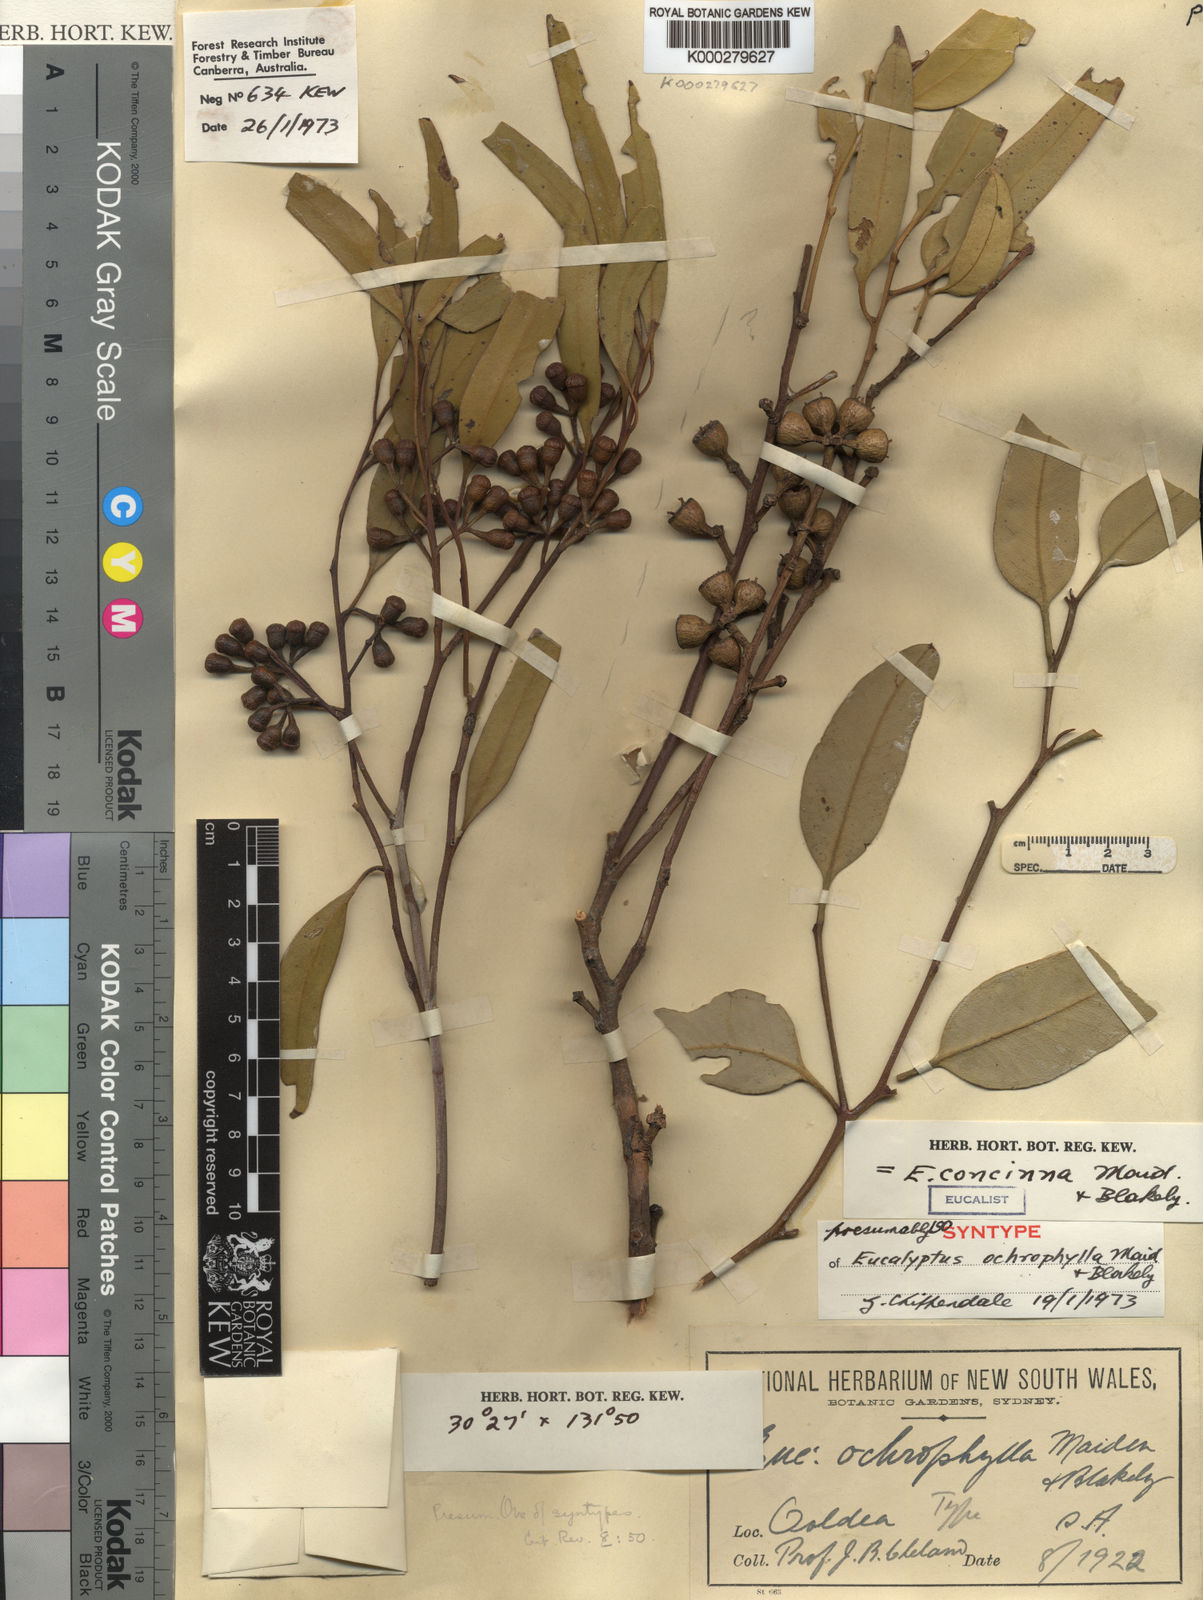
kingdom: Plantae
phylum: Tracheophyta
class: Magnoliopsida
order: Myrtales
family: Myrtaceae
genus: Eucalyptus
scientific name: Eucalyptus concinna
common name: Desert gum
